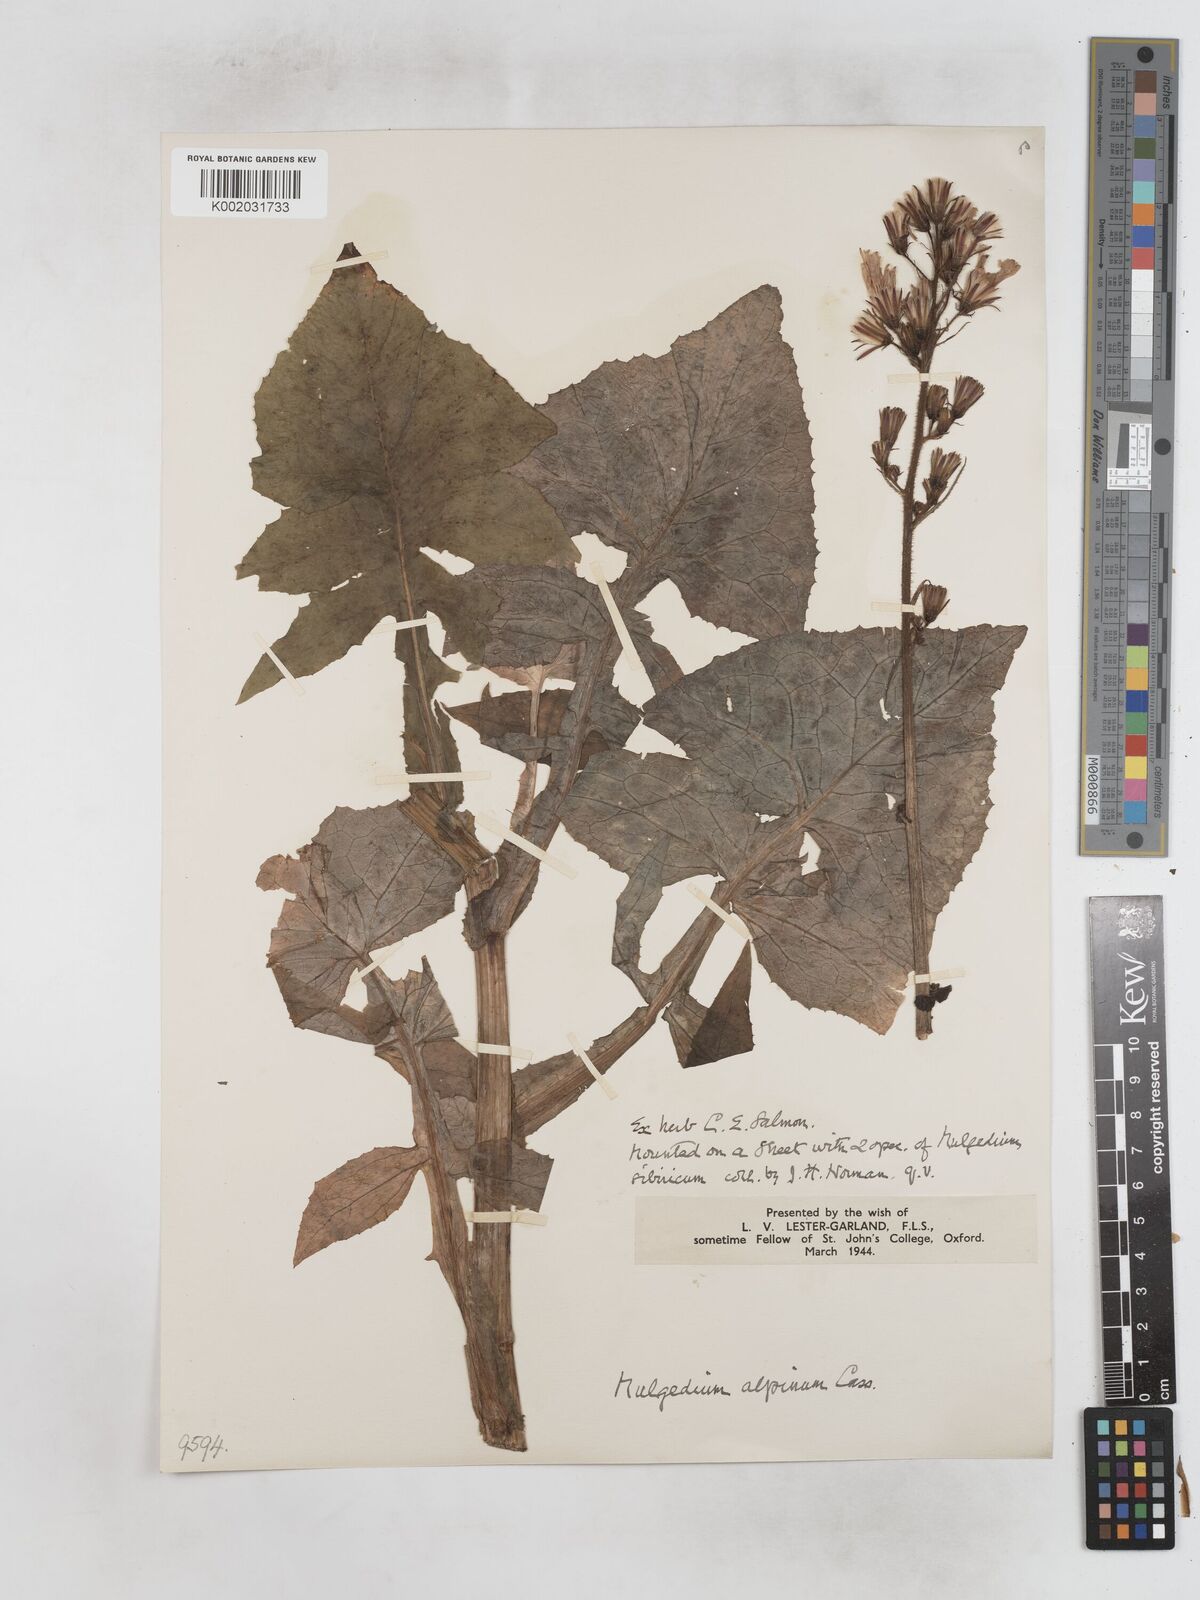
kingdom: Plantae
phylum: Tracheophyta
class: Magnoliopsida
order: Asterales
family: Asteraceae
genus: Cicerbita
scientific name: Cicerbita alpina
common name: Alpine blue-sow-thistle
